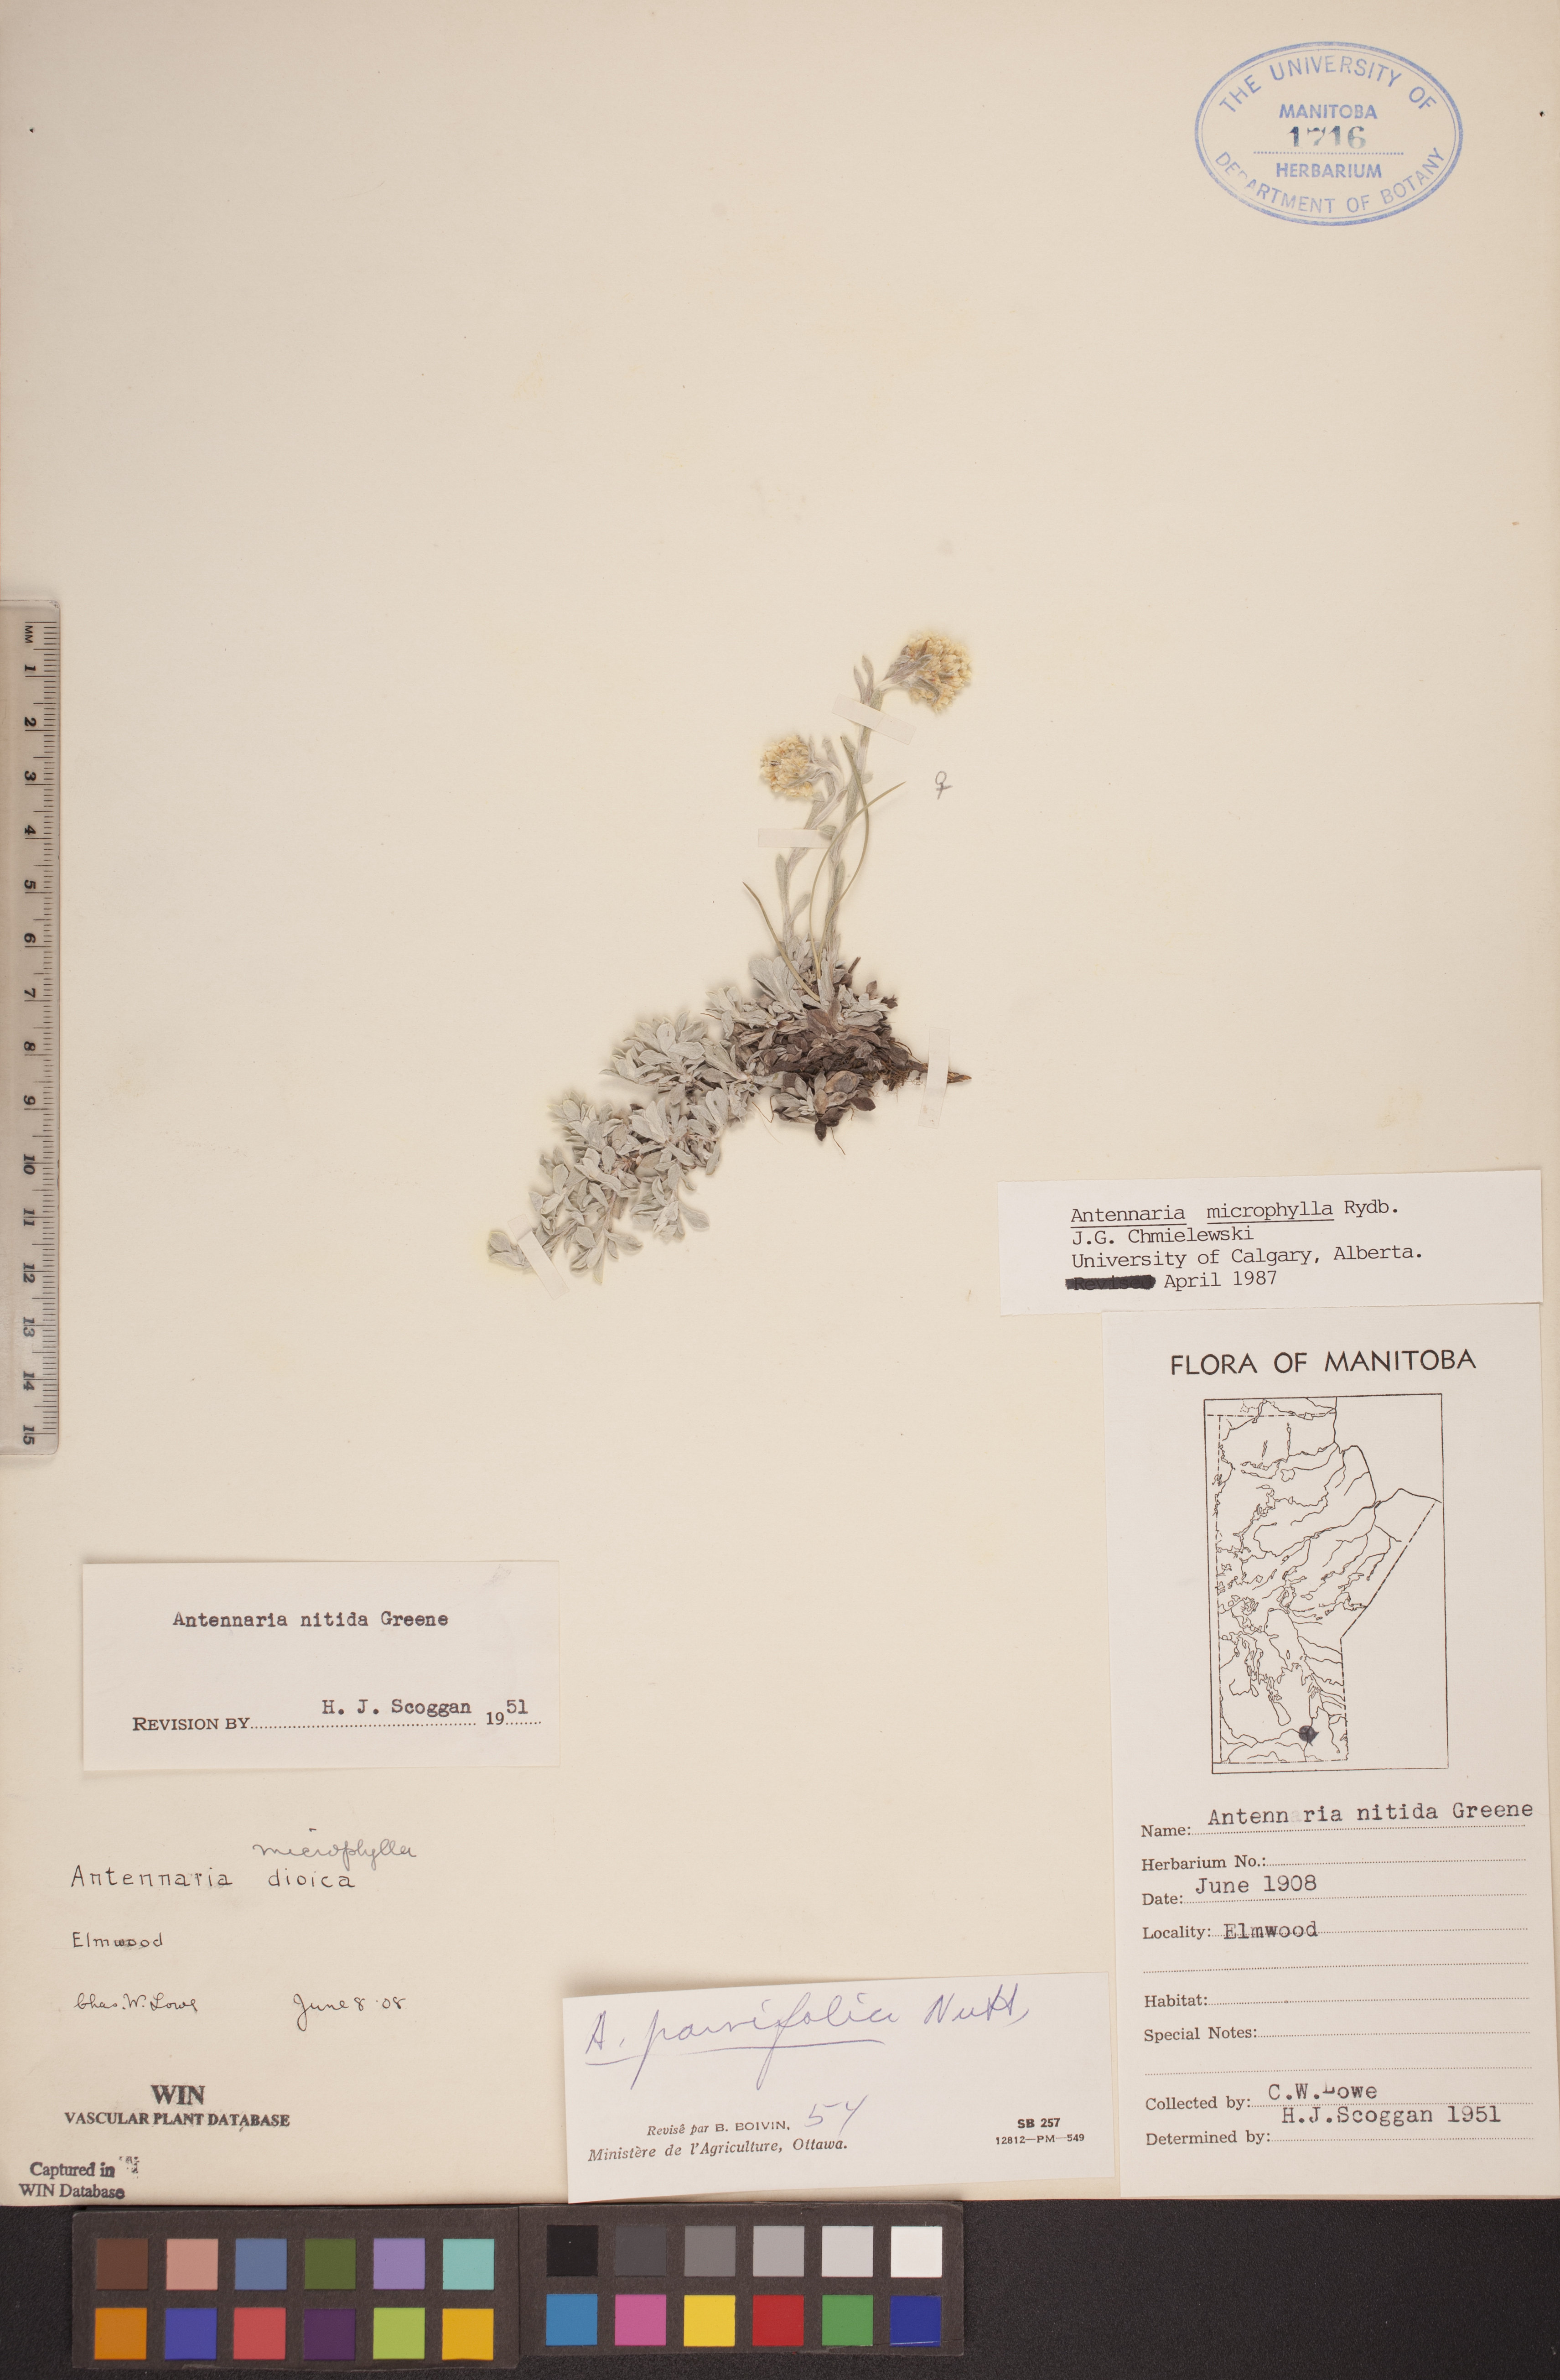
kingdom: Plantae
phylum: Tracheophyta
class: Magnoliopsida
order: Asterales
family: Asteraceae
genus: Antennaria
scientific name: Antennaria microphylla
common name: Littleleaf pussytoes
